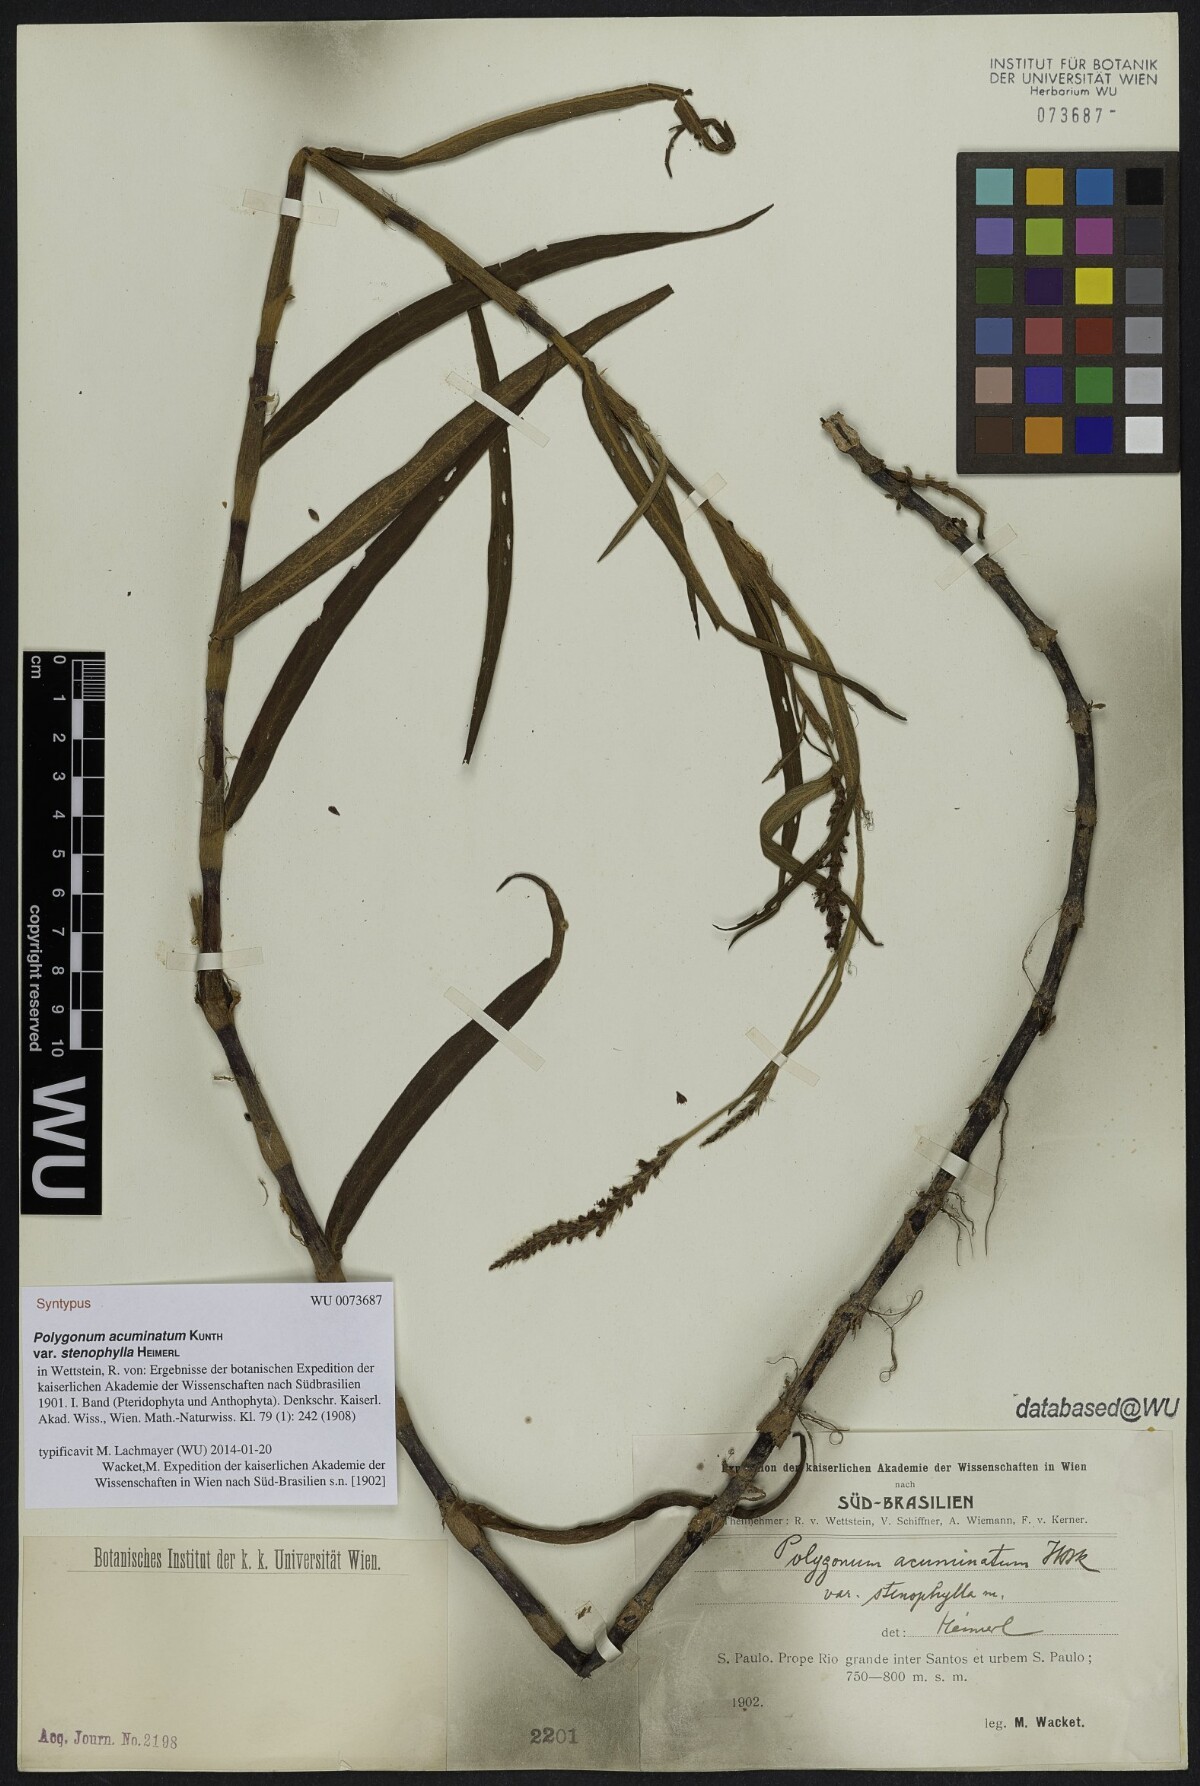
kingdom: Plantae
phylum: Tracheophyta
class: Magnoliopsida
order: Caryophyllales
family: Polygonaceae
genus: Persicaria
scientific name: Persicaria acuminata
